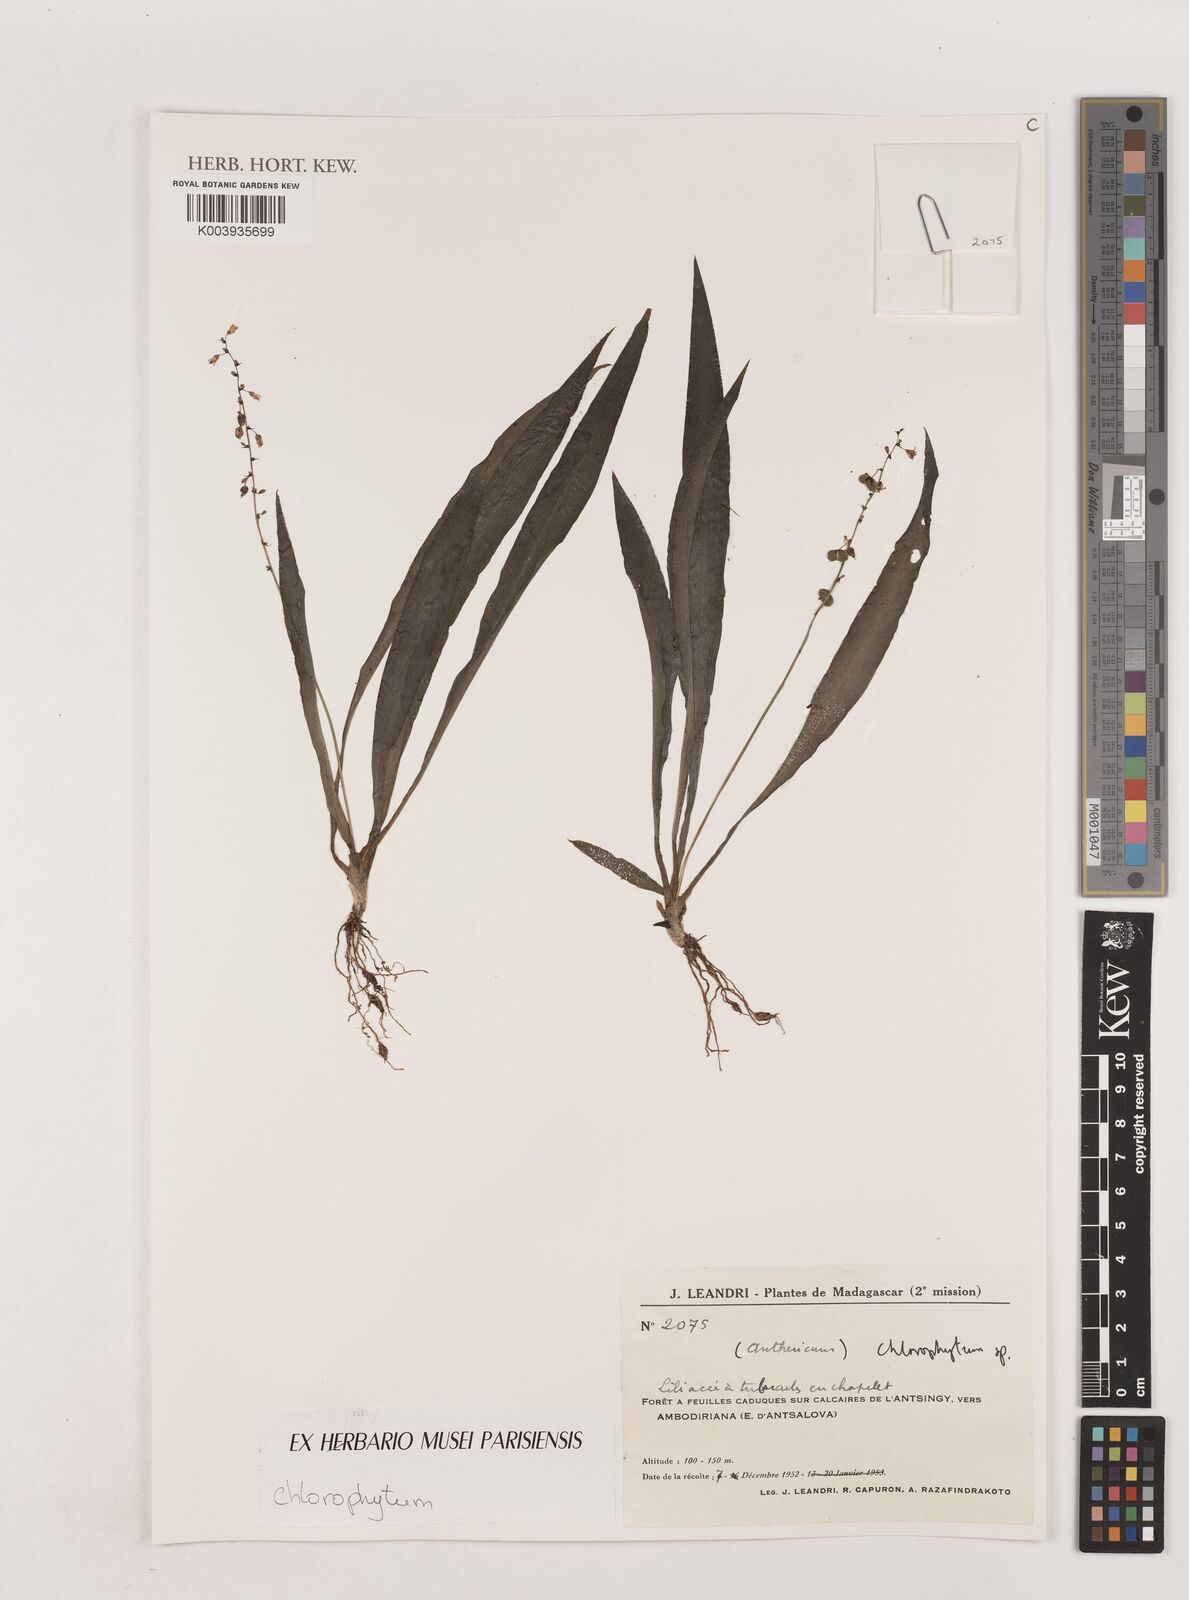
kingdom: Plantae
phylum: Tracheophyta
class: Liliopsida
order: Asparagales
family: Asparagaceae
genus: Chlorophytum
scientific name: Chlorophytum
